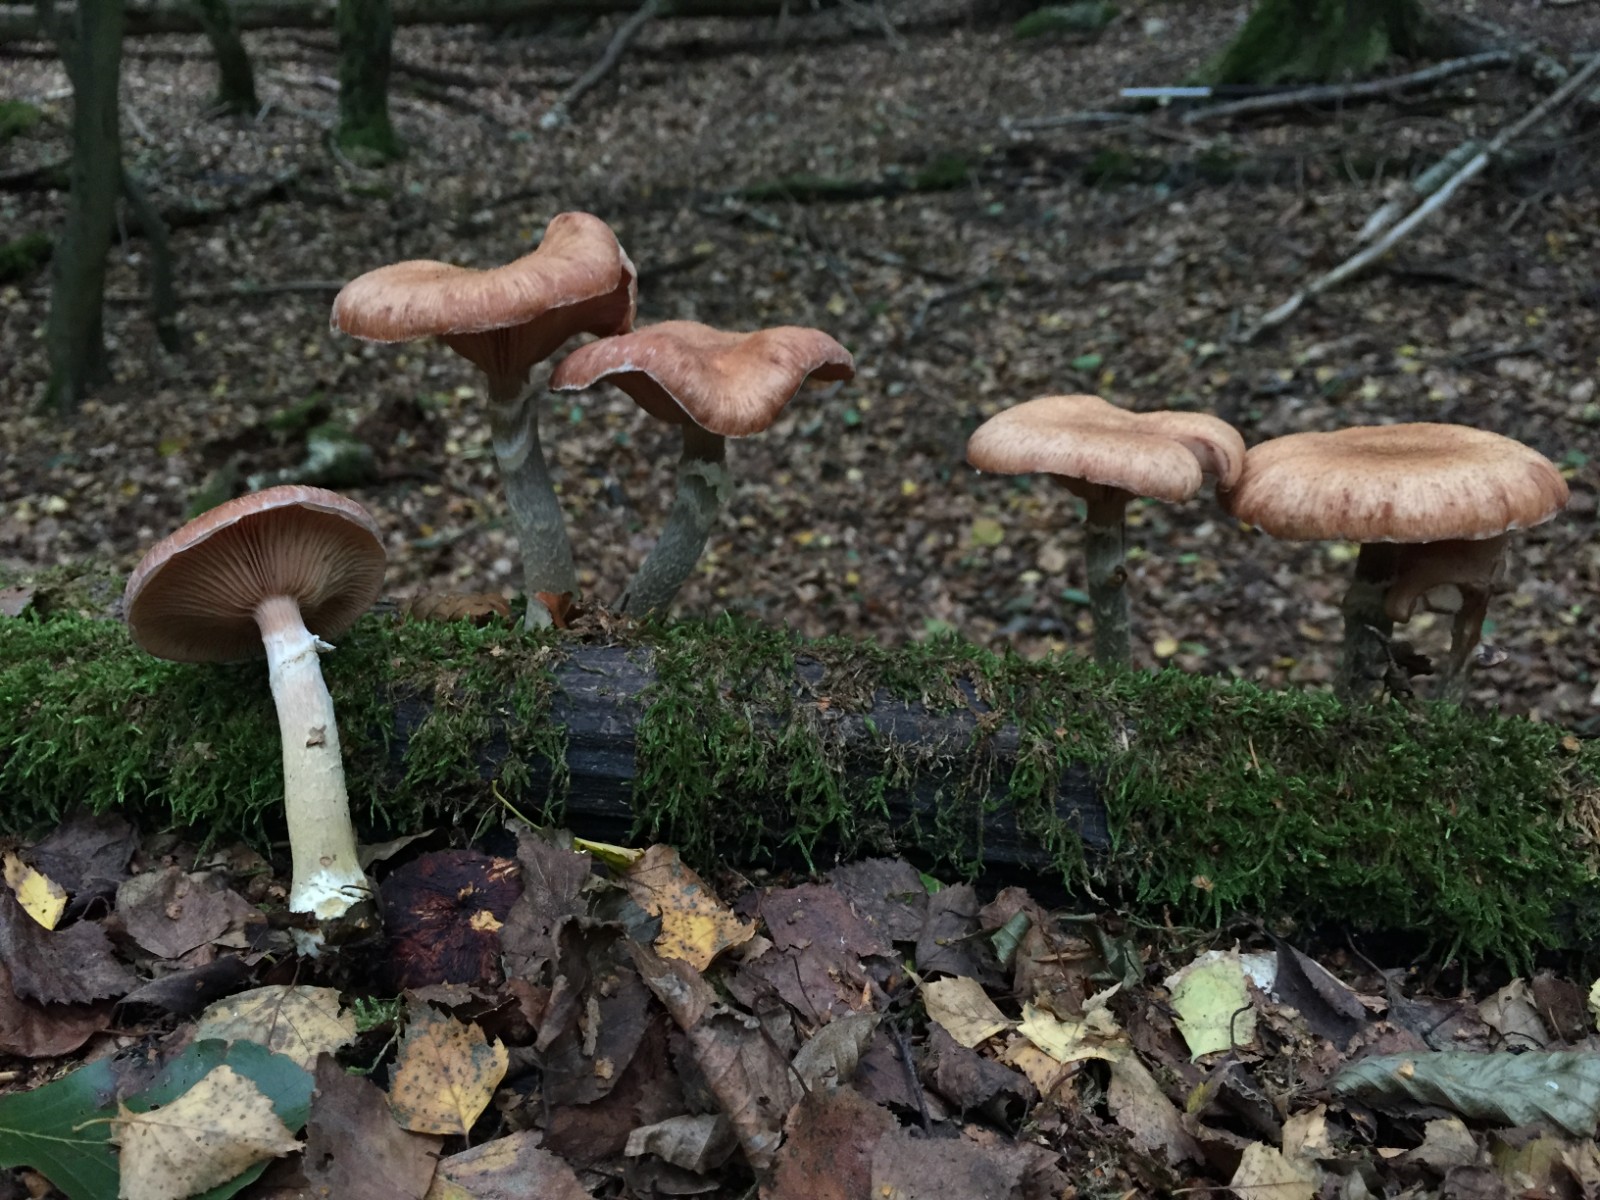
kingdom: Fungi
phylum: Basidiomycota
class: Agaricomycetes
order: Agaricales
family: Physalacriaceae
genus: Armillaria
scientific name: Armillaria lutea
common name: køllestokket honningsvamp
